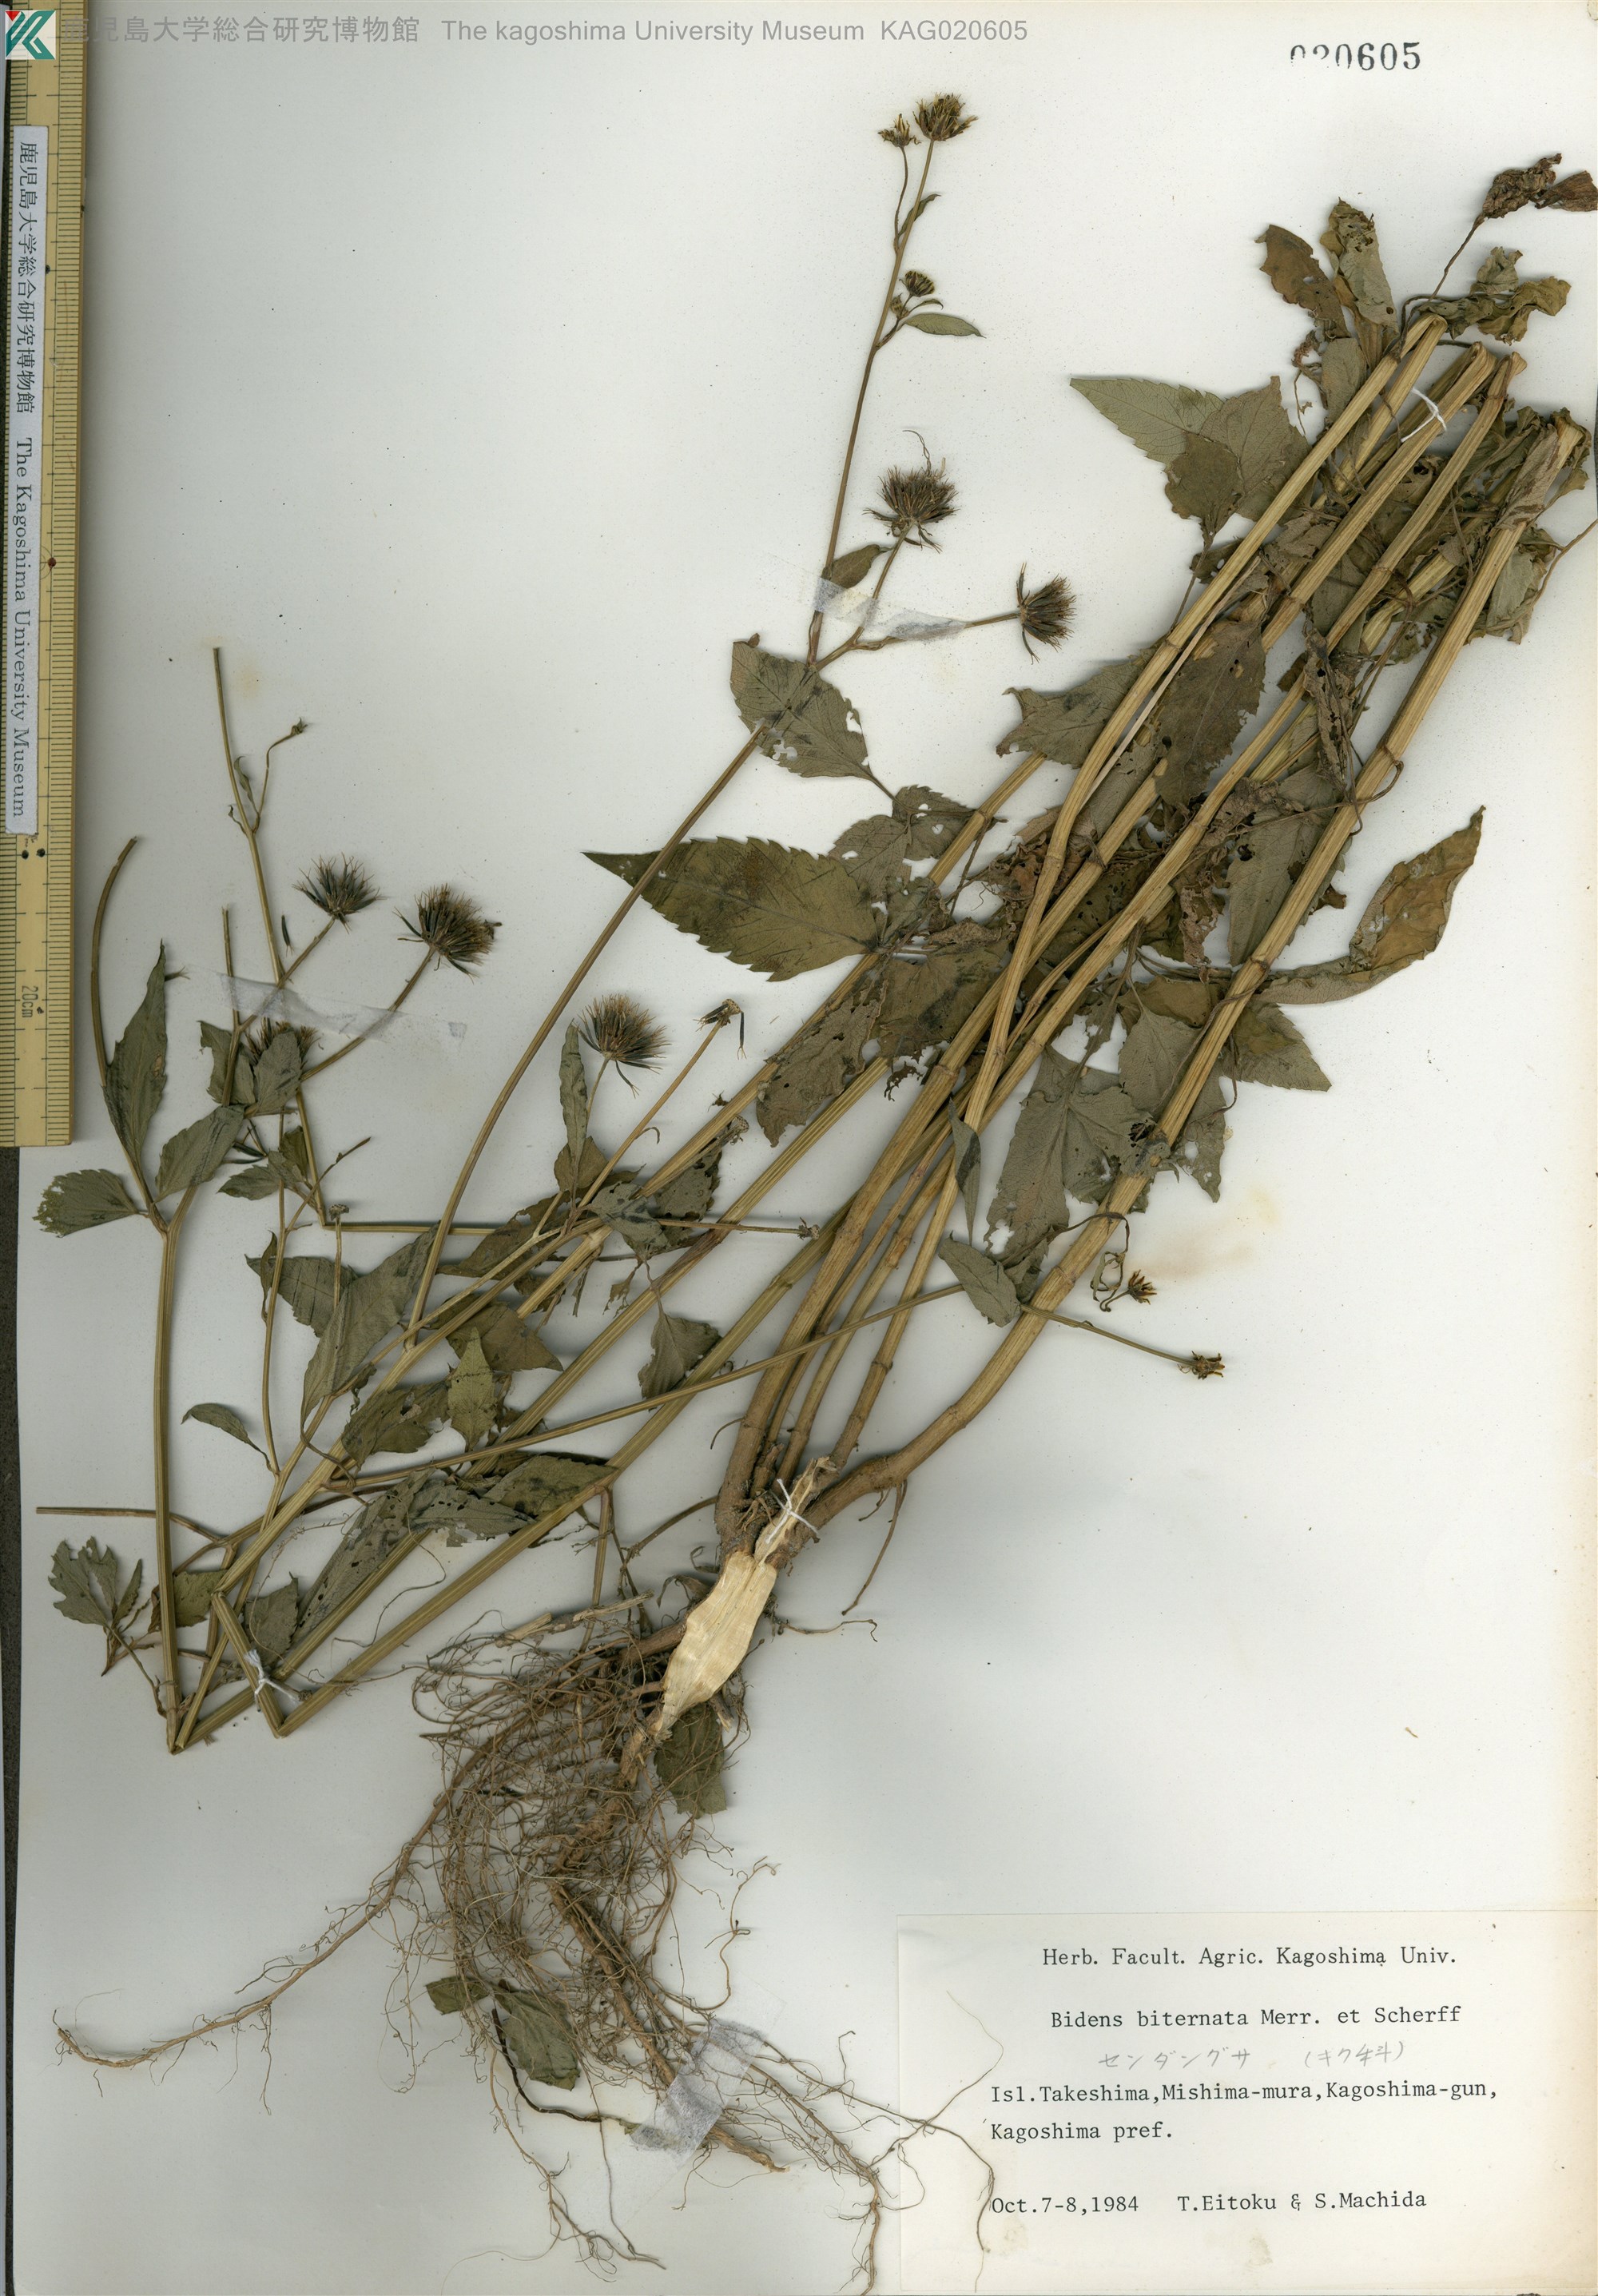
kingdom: Plantae
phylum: Tracheophyta
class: Magnoliopsida
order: Asterales
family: Asteraceae
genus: Bidens
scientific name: Bidens biternata
